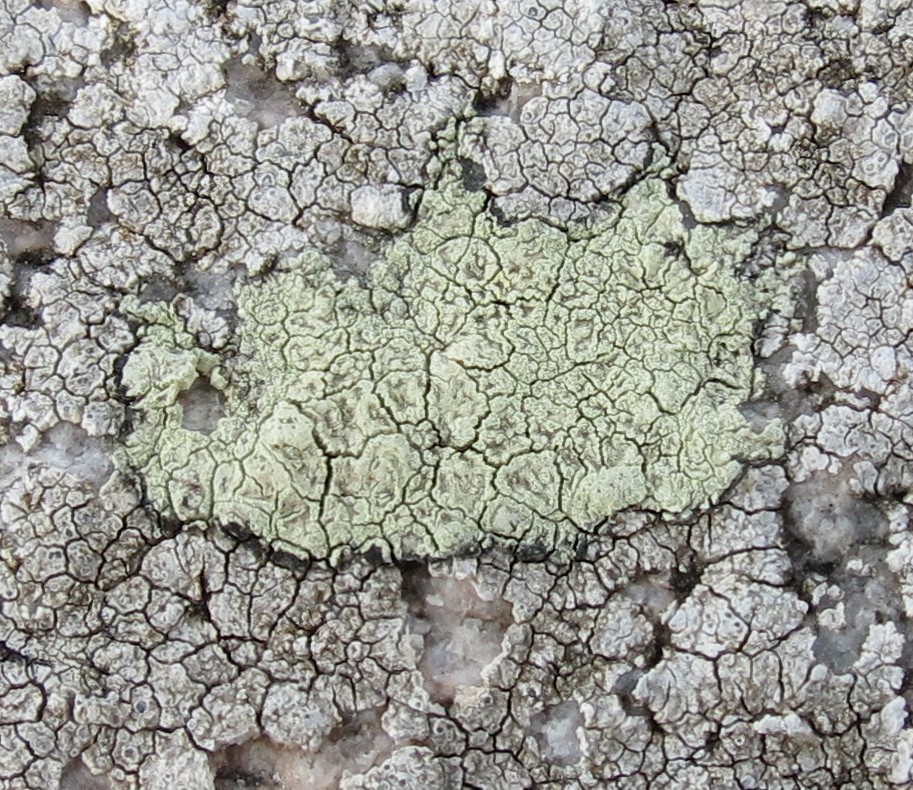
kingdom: Fungi
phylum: Ascomycota
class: Lecanoromycetes
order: Lecanorales
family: Lecanoraceae
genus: Glaucomaria
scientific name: Glaucomaria sulphurea
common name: svovlgul kantskivelav
